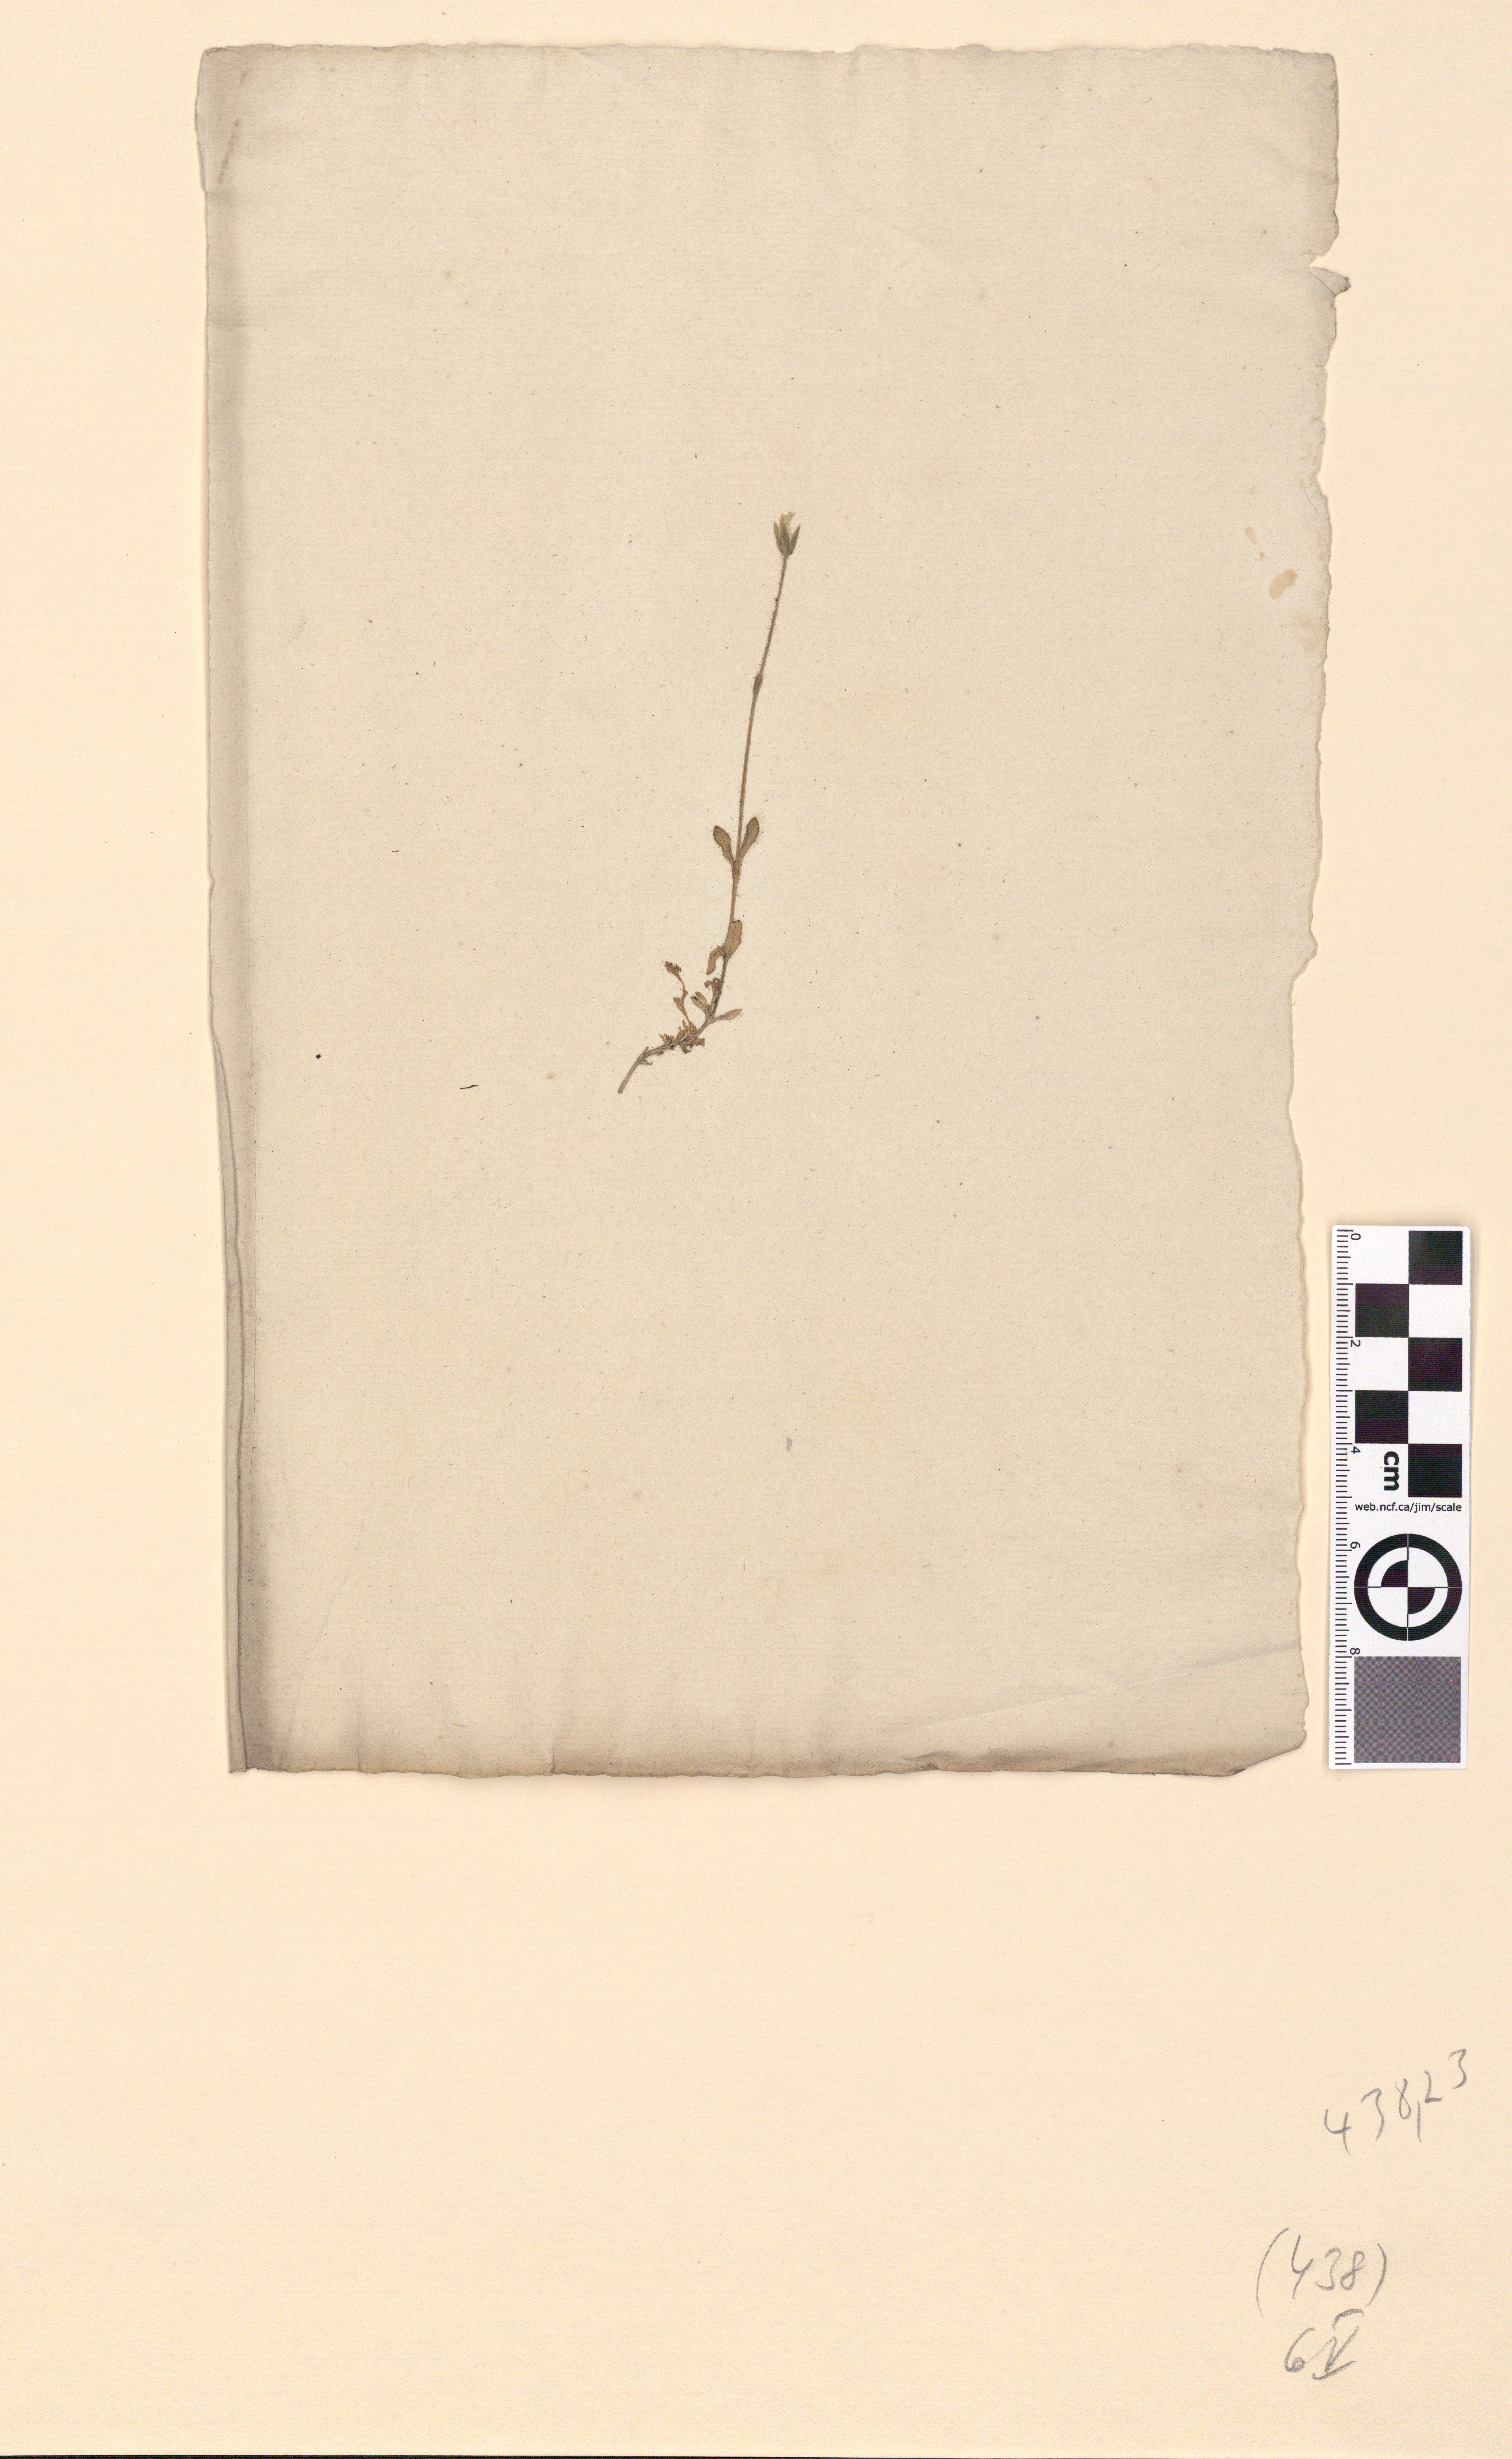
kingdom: Plantae
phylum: Tracheophyta
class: Magnoliopsida
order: Caryophyllales
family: Caryophyllaceae
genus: Cerastium
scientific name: Cerastium alpinum
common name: Alpine mouse-ear
